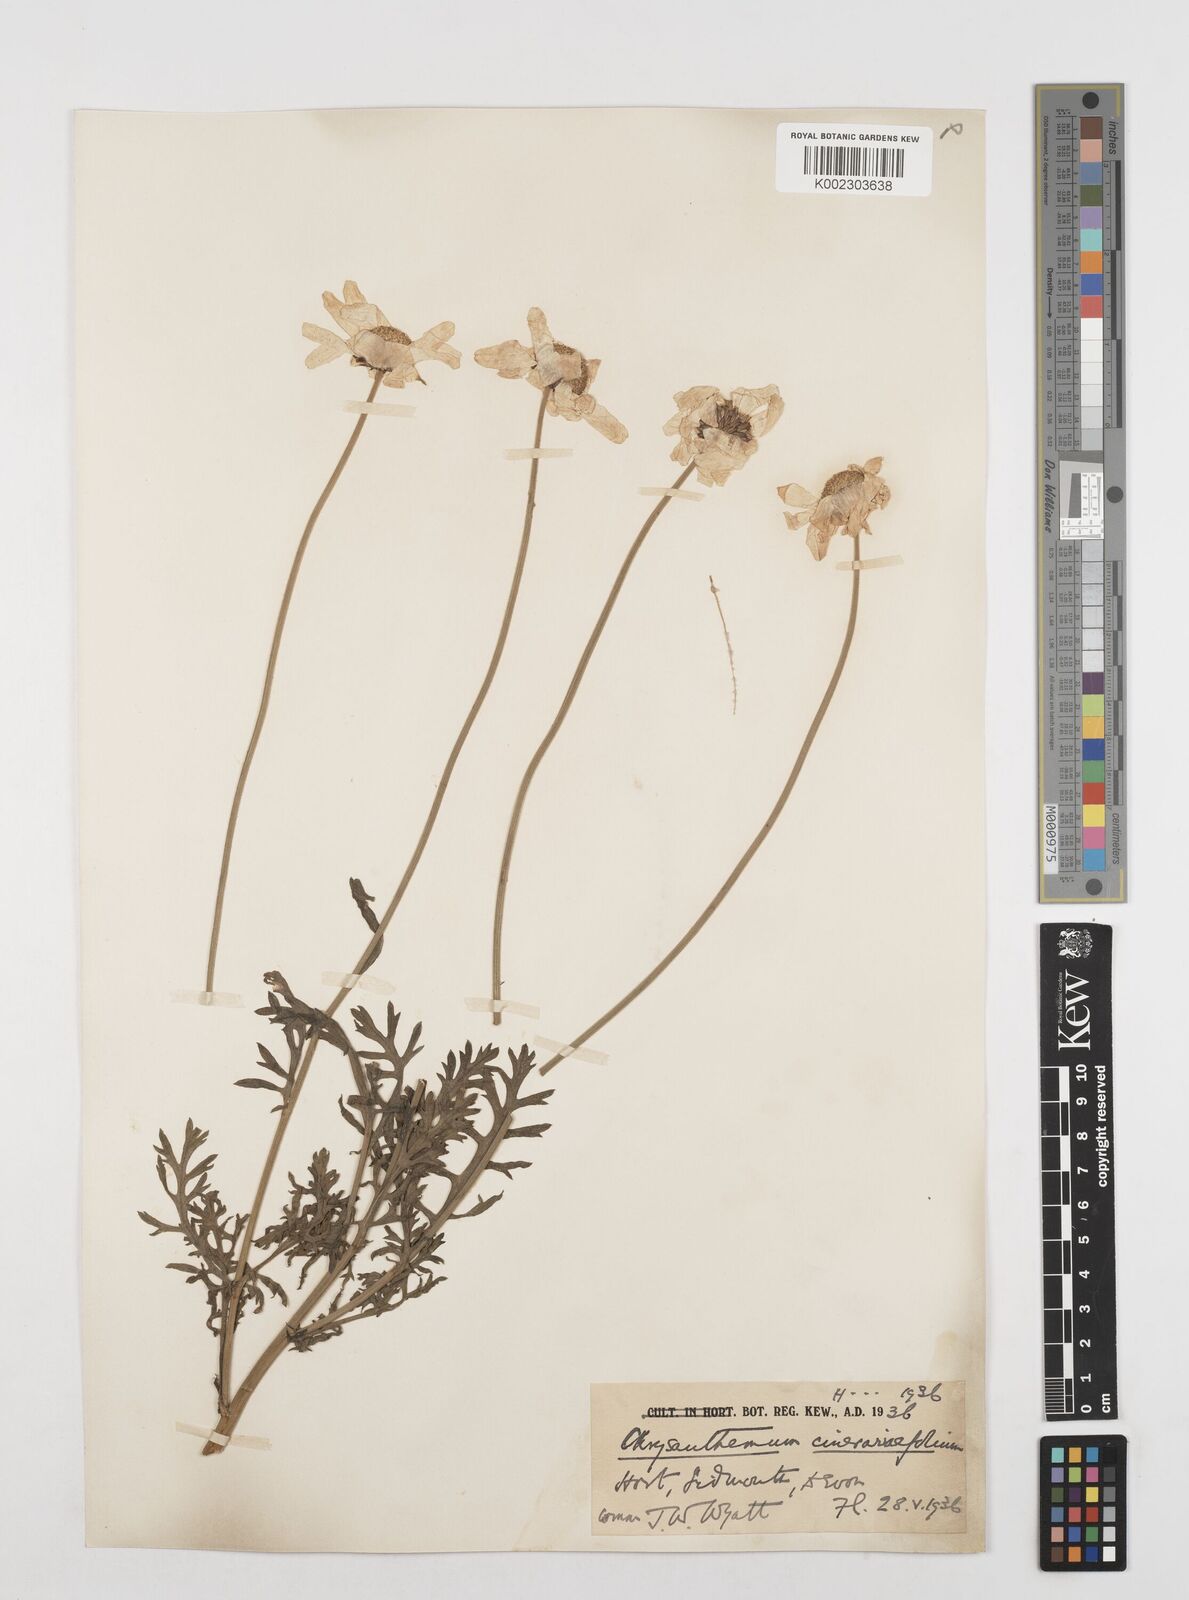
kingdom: Plantae
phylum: Tracheophyta
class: Magnoliopsida
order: Asterales
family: Asteraceae
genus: Tanacetum
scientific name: Tanacetum cinerariifolium
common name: Dalmatian pyrethrum
